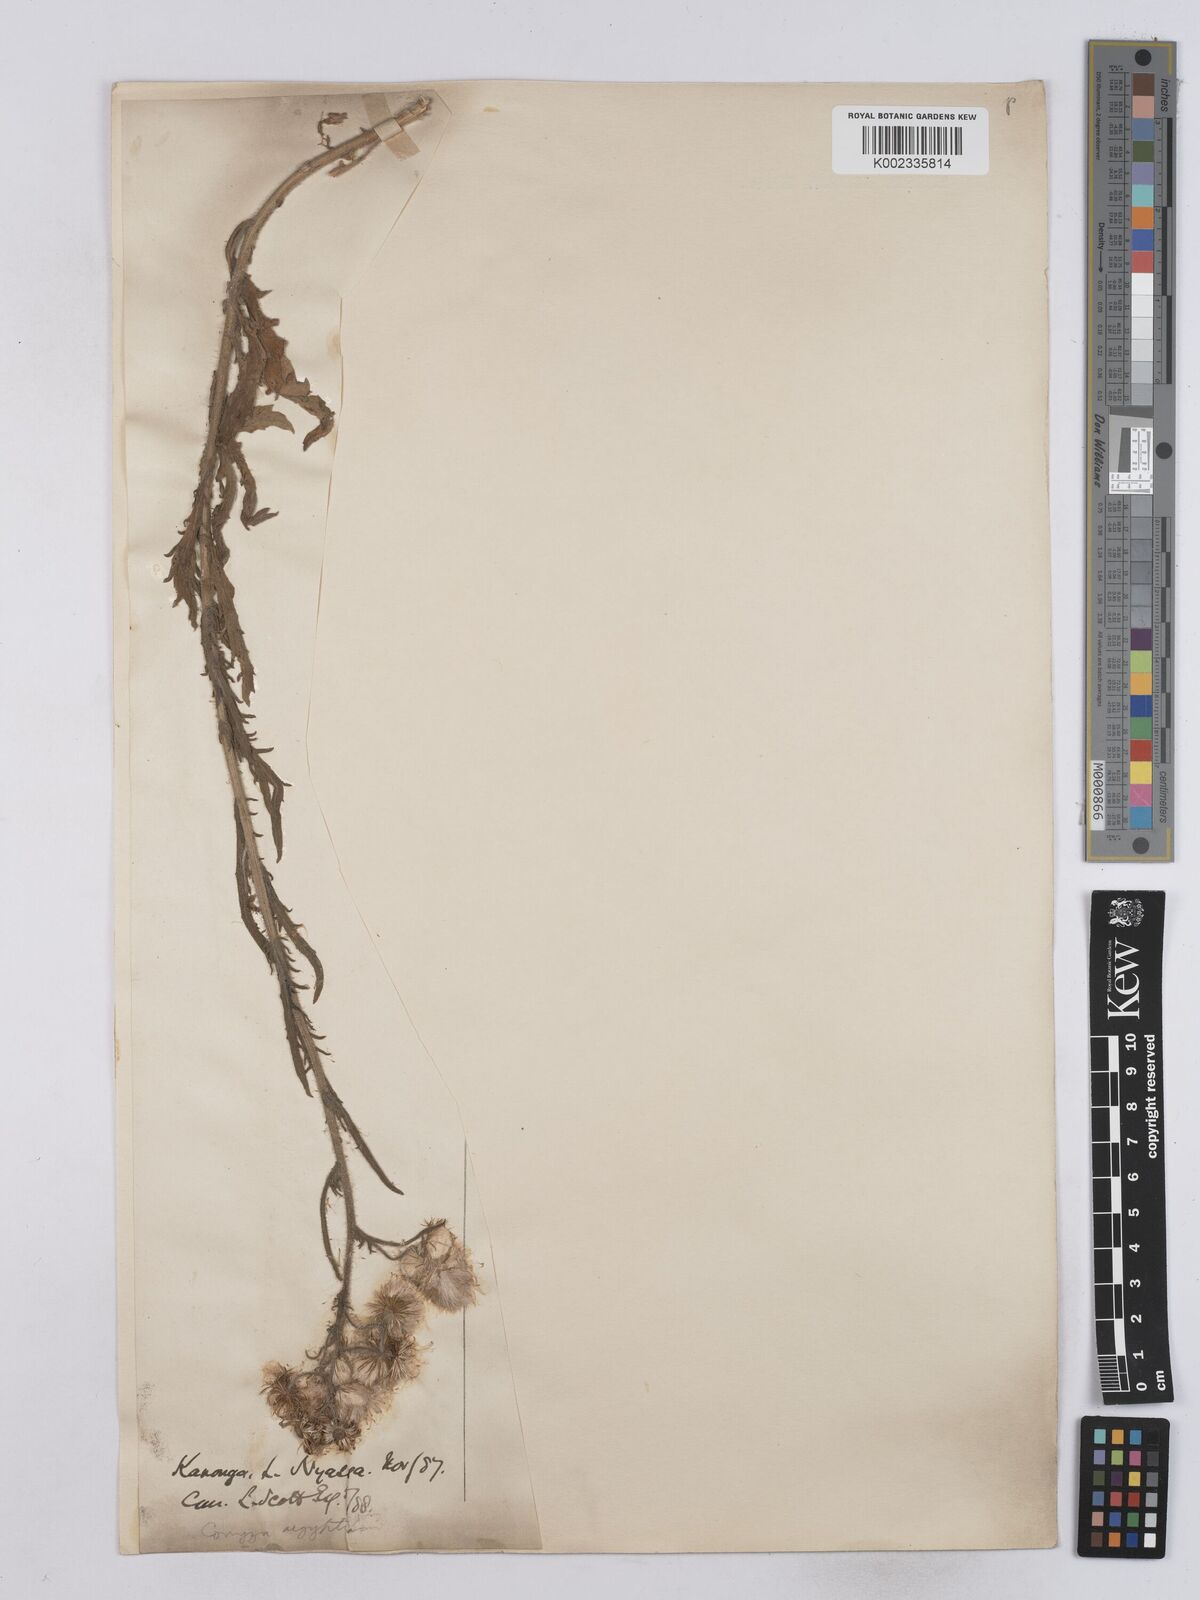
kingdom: Plantae
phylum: Tracheophyta
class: Magnoliopsida
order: Asterales
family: Asteraceae
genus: Nidorella
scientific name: Nidorella aegyptiaca
